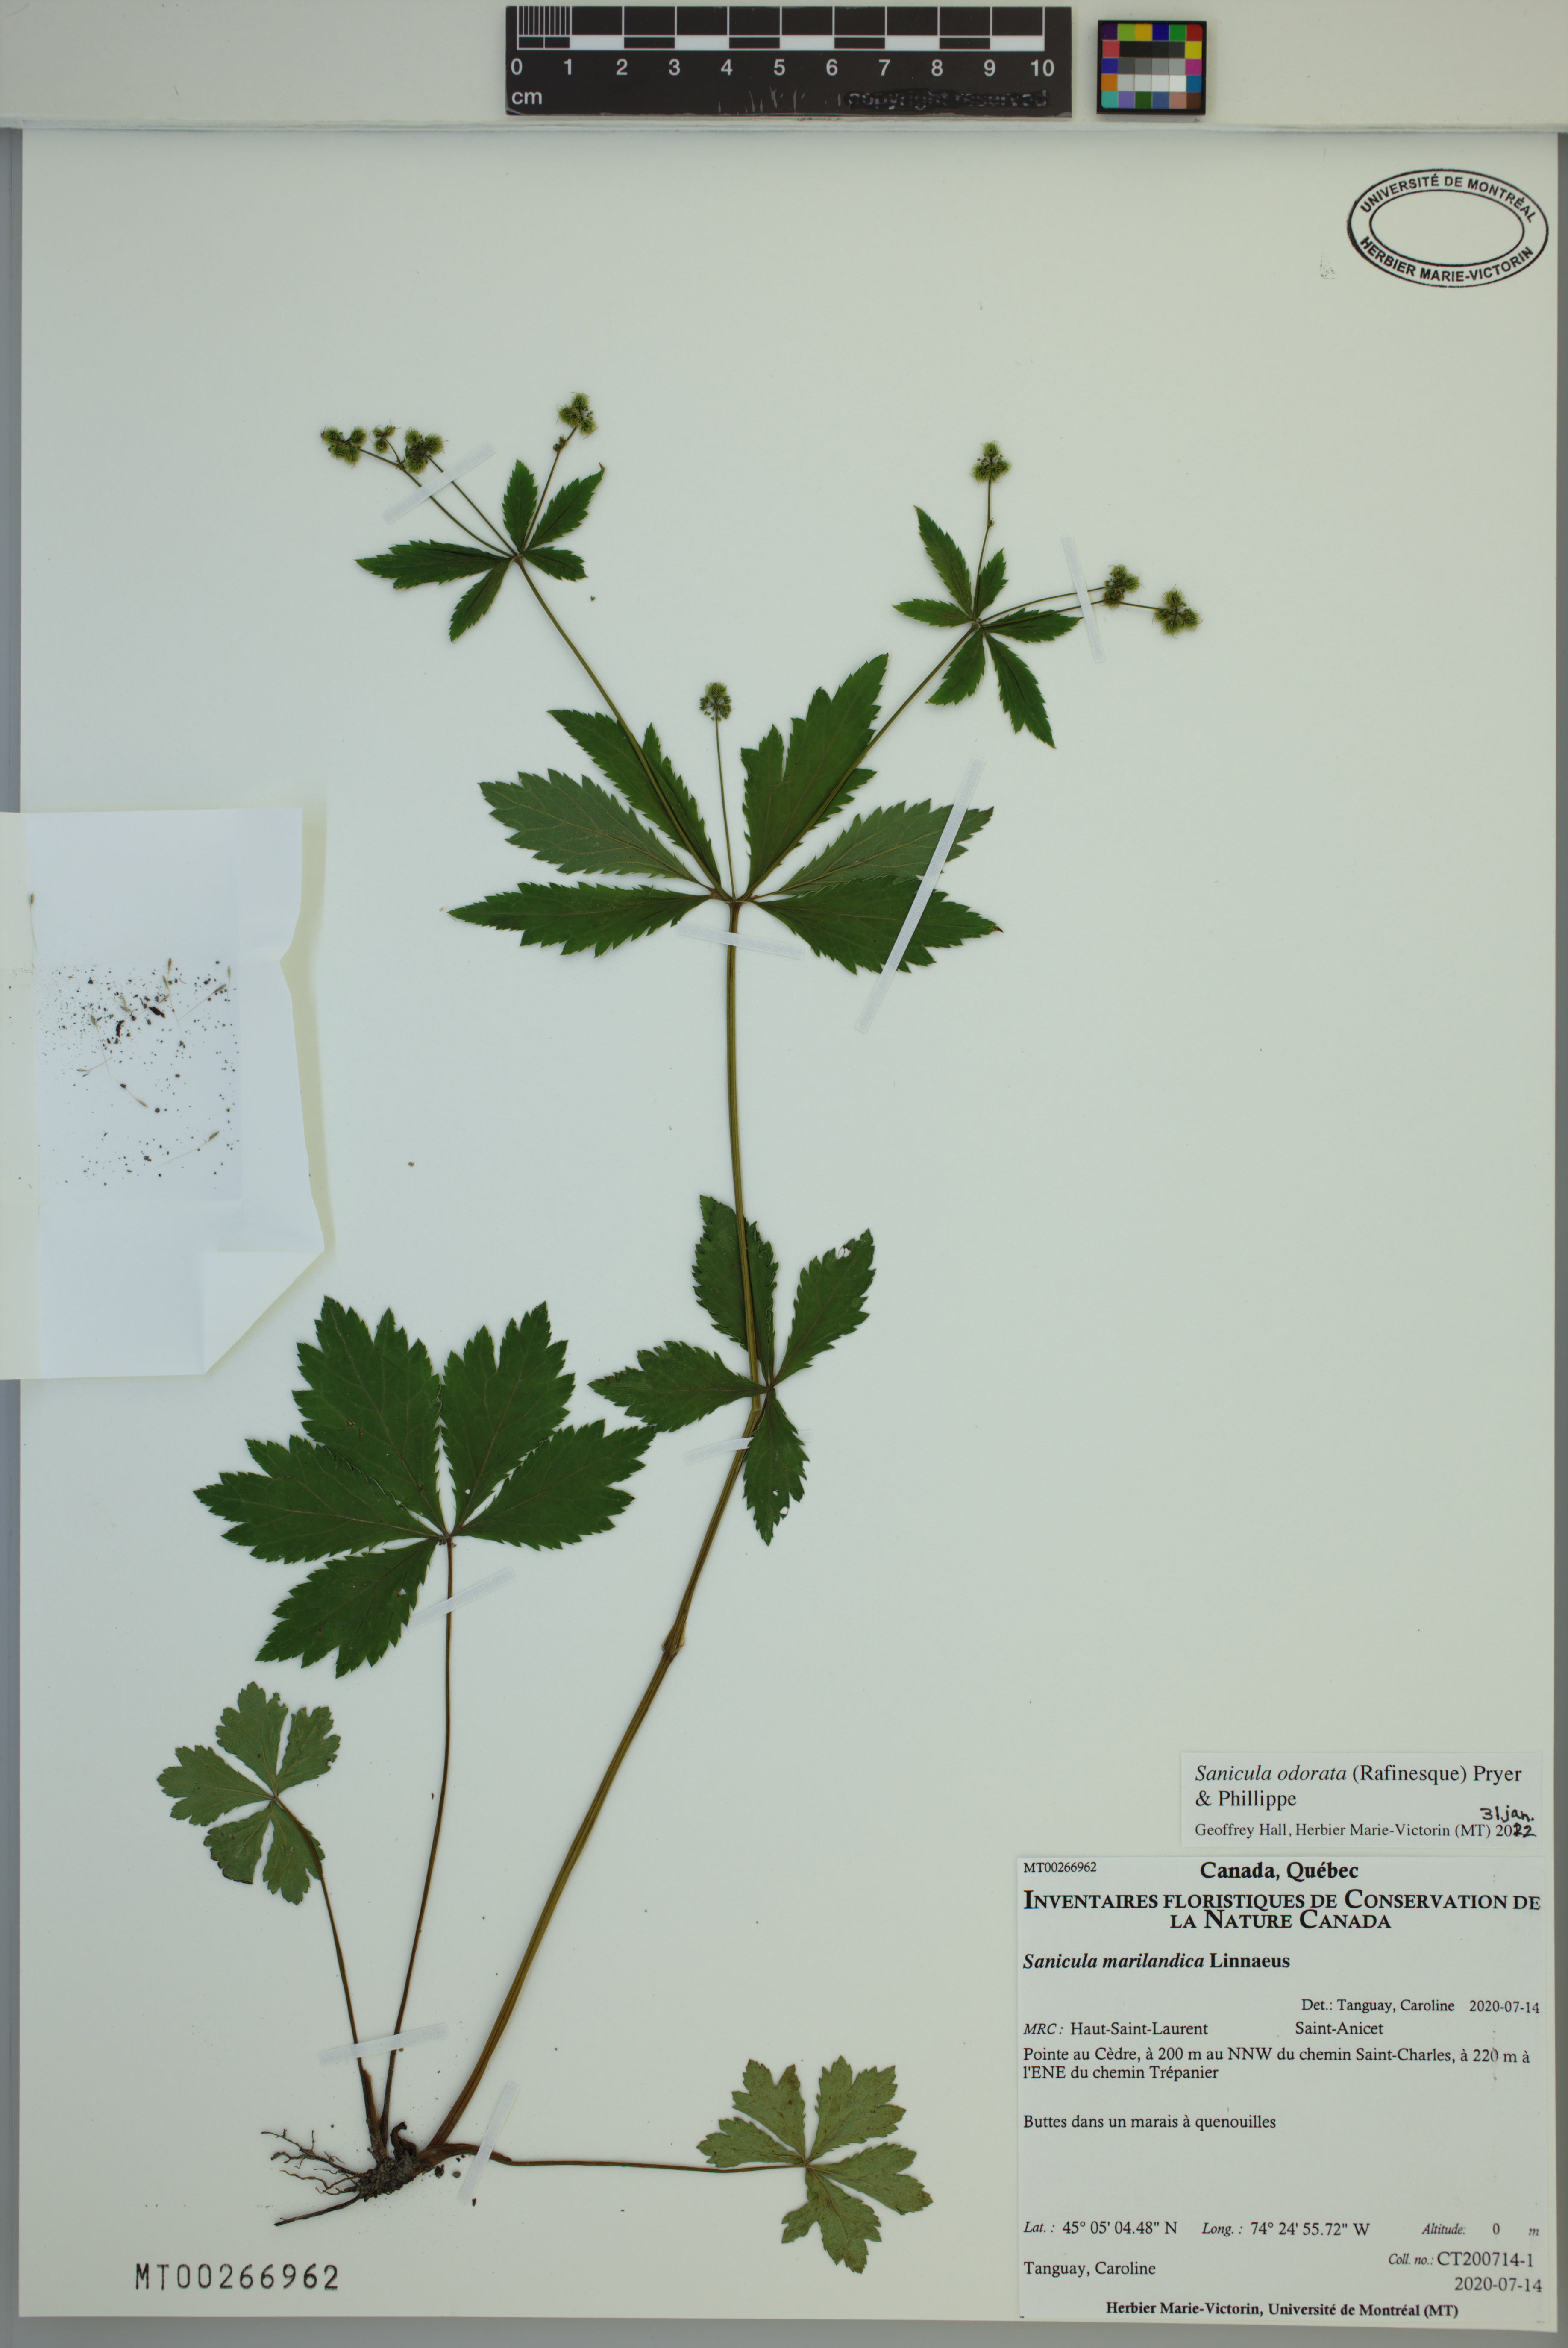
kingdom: Plantae
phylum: Tracheophyta
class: Magnoliopsida
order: Apiales
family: Apiaceae
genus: Sanicula
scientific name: Sanicula odorata
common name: Cluster sanicle
